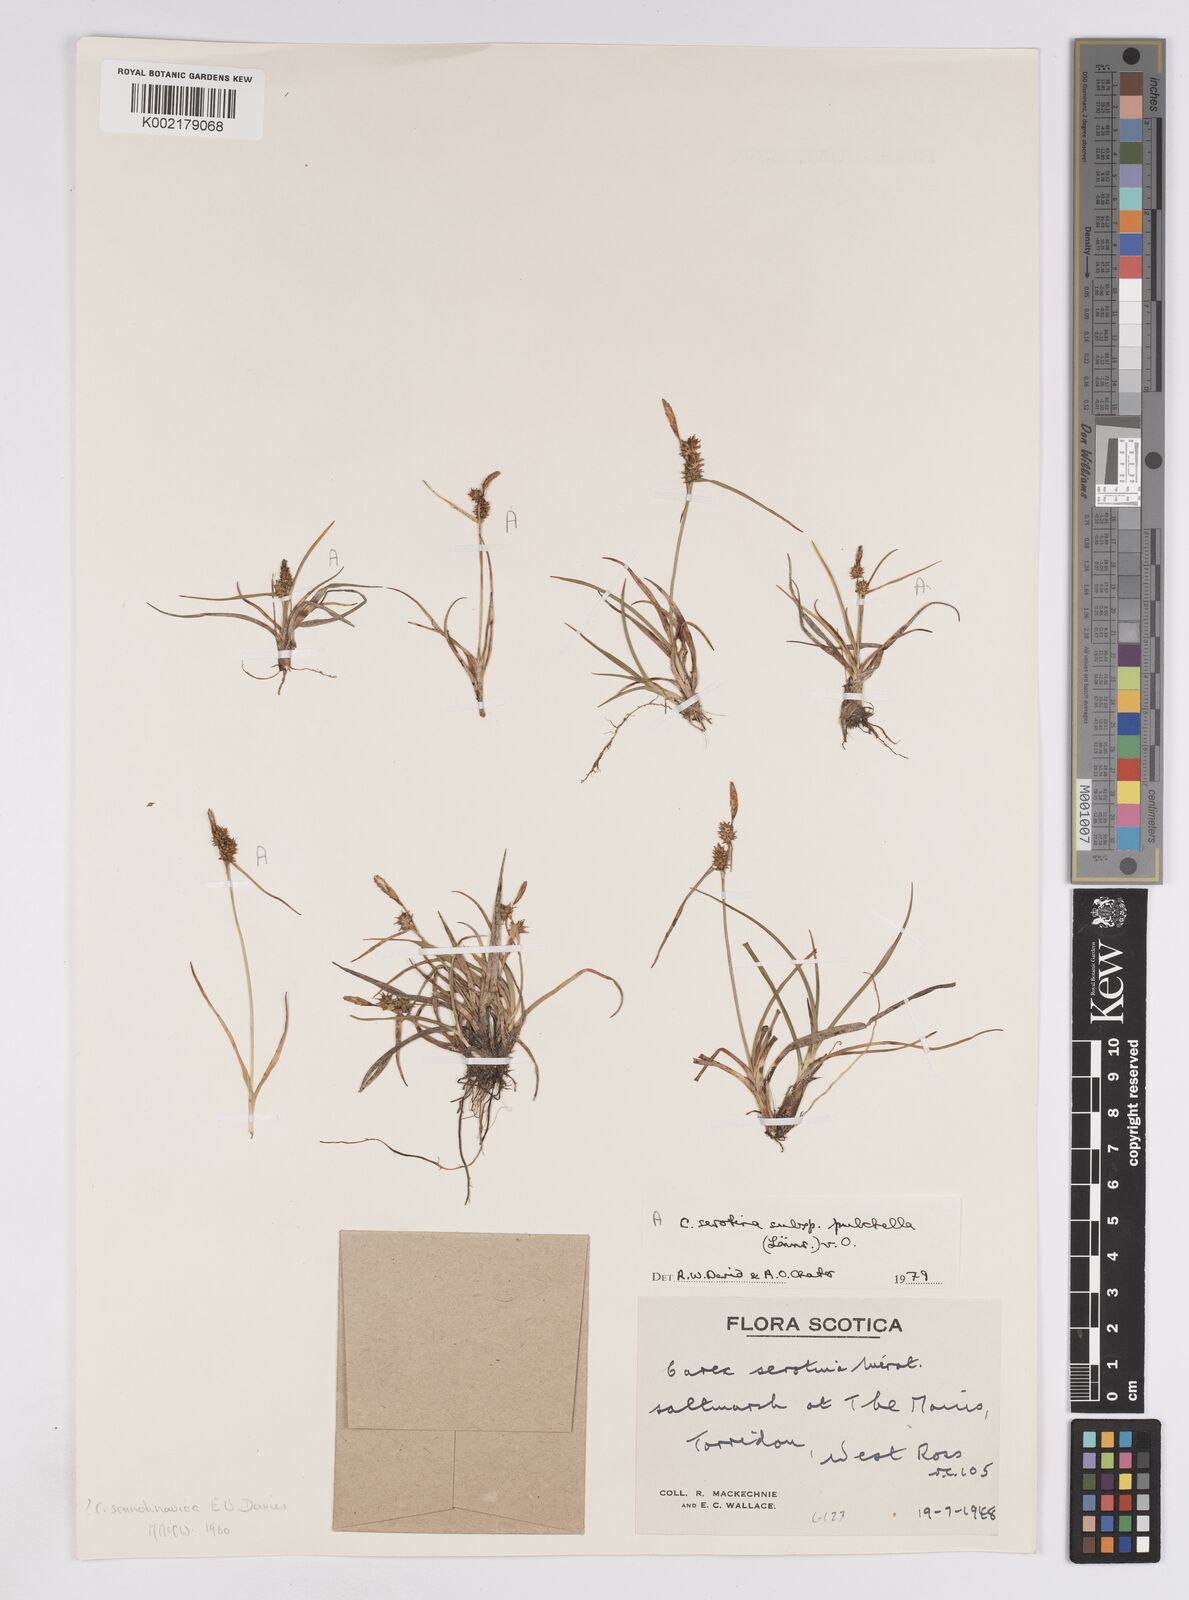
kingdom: Plantae
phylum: Tracheophyta
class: Liliopsida
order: Poales
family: Cyperaceae
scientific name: Cyperaceae
